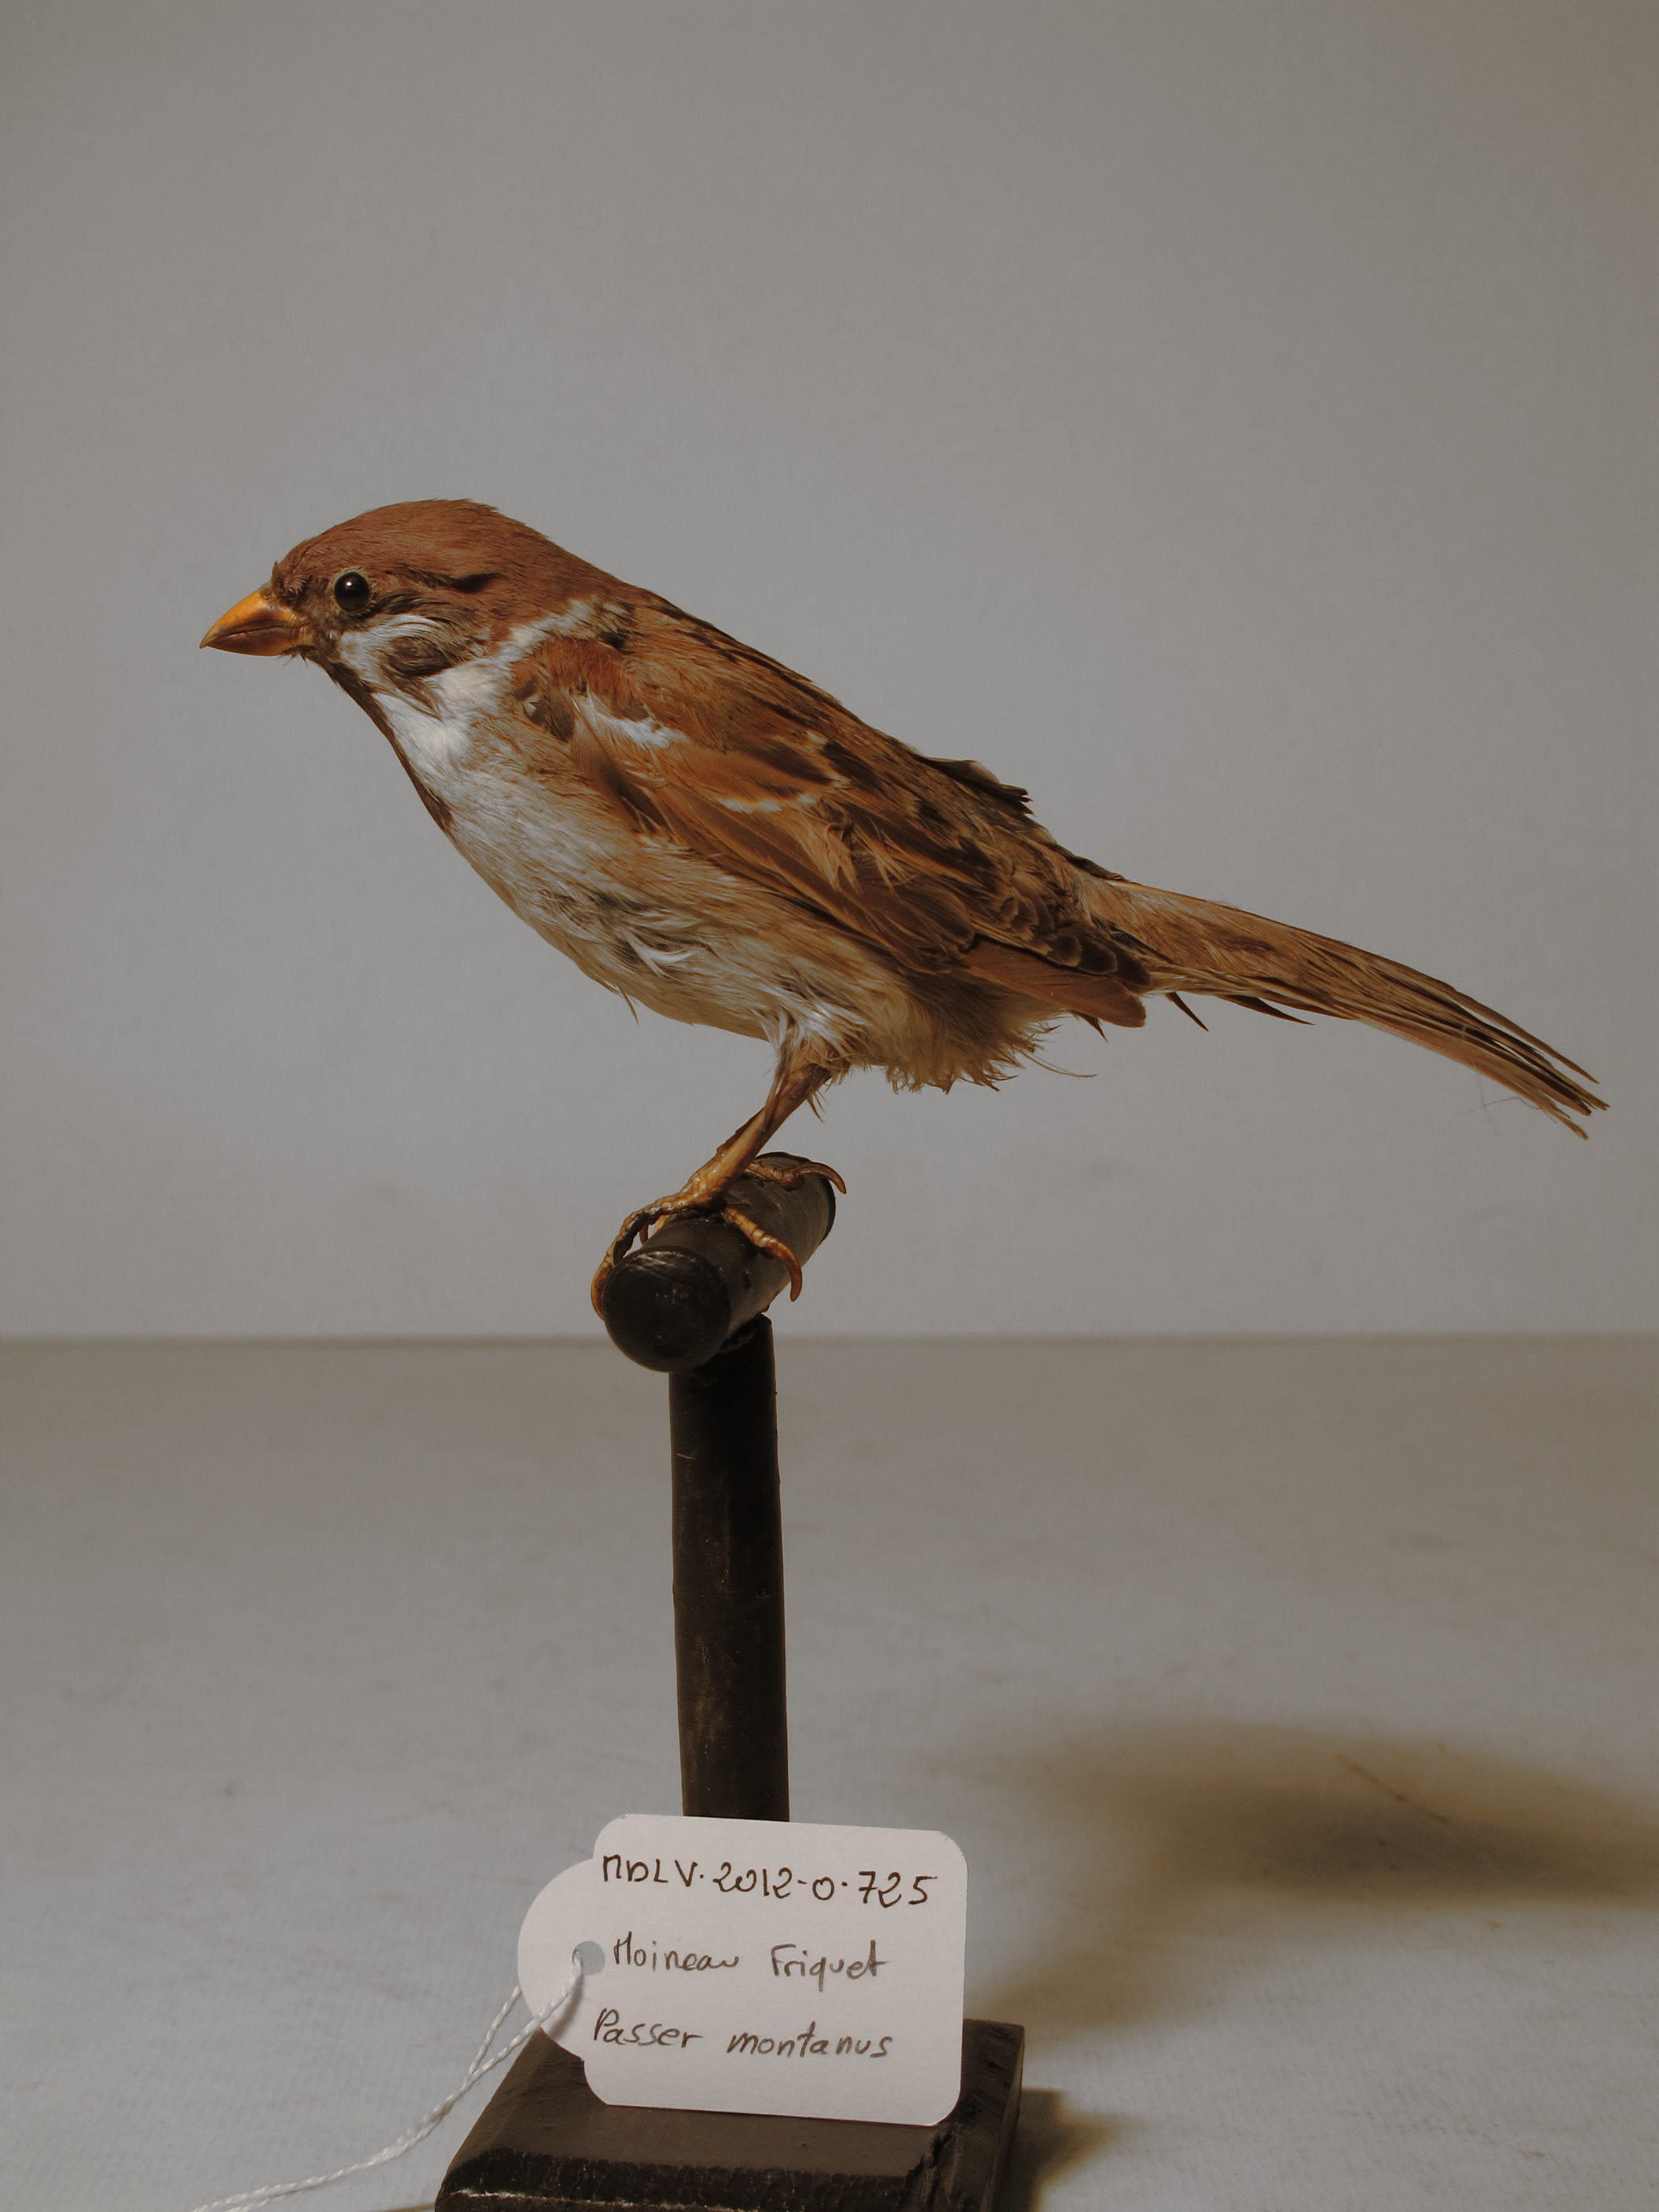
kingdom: Animalia
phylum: Chordata
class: Aves
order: Passeriformes
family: Passeridae
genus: Passer
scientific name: Passer montanus
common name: Eurasian Tree Sparrow
